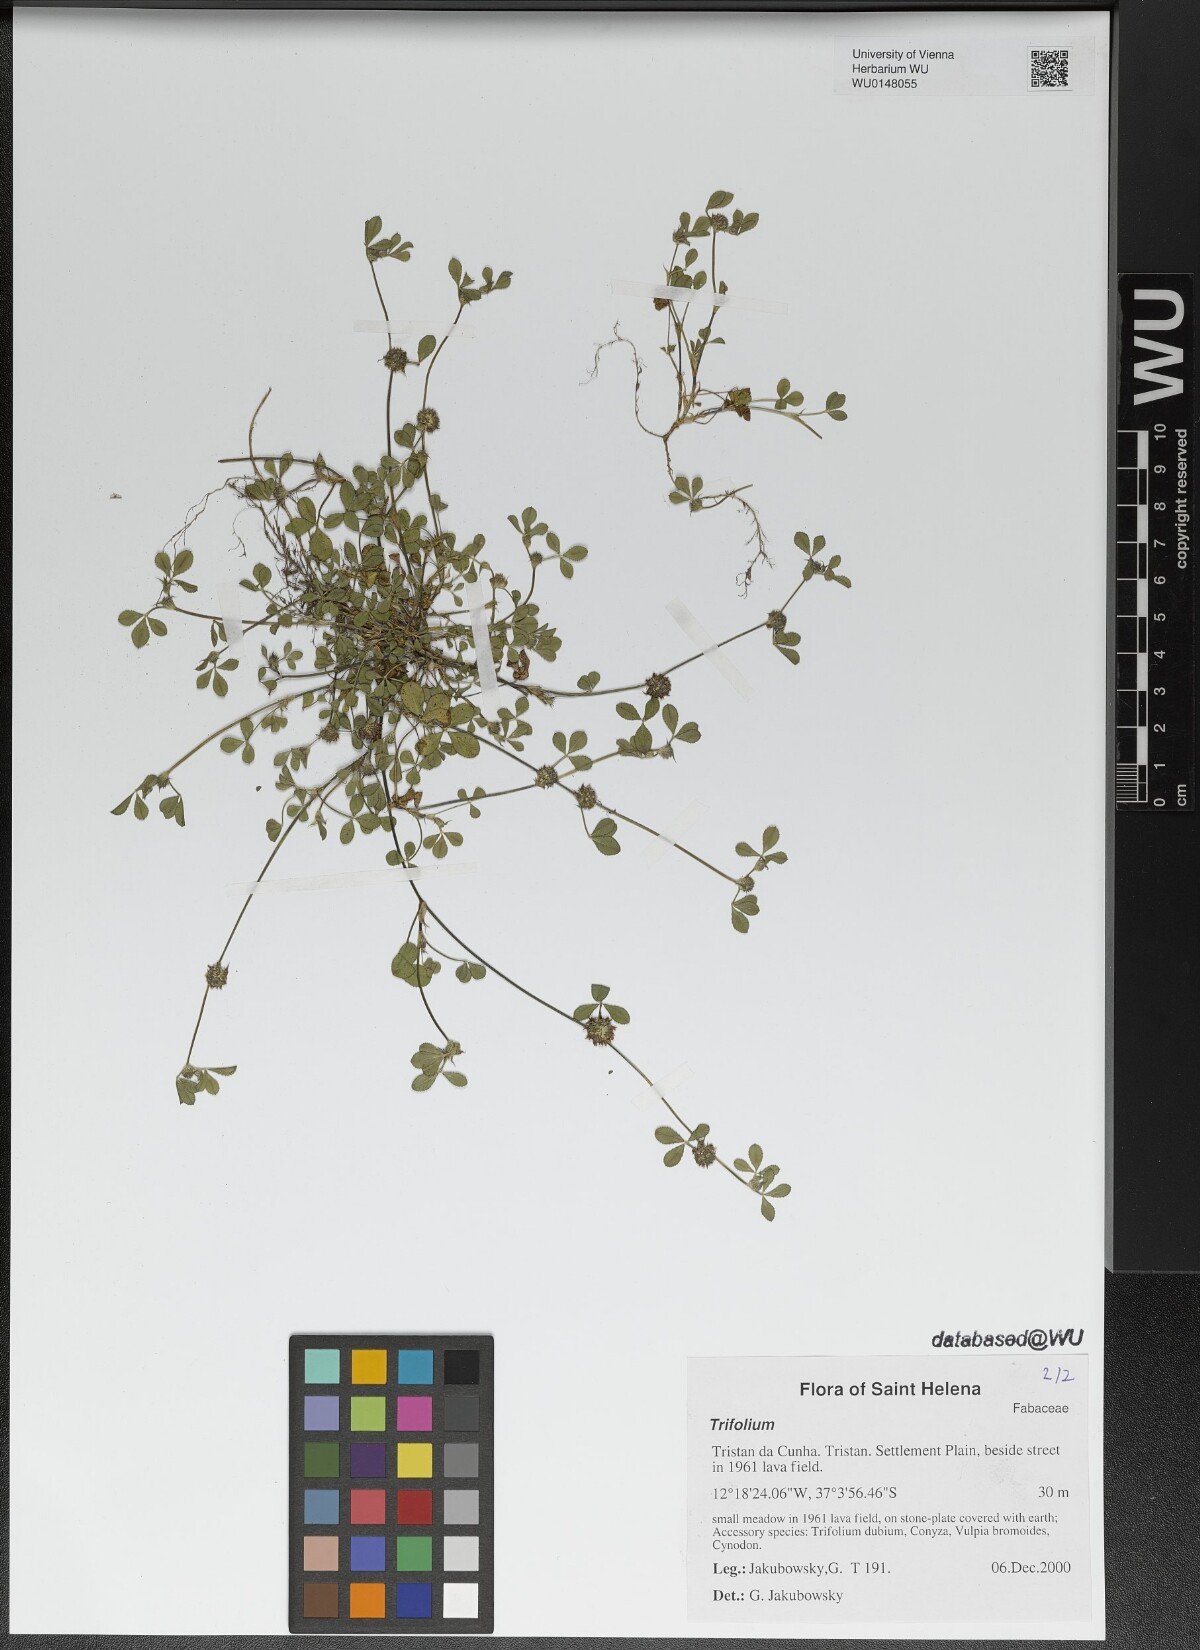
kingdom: Plantae
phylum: Tracheophyta
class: Magnoliopsida
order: Fabales
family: Fabaceae
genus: Trifolium
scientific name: Trifolium
